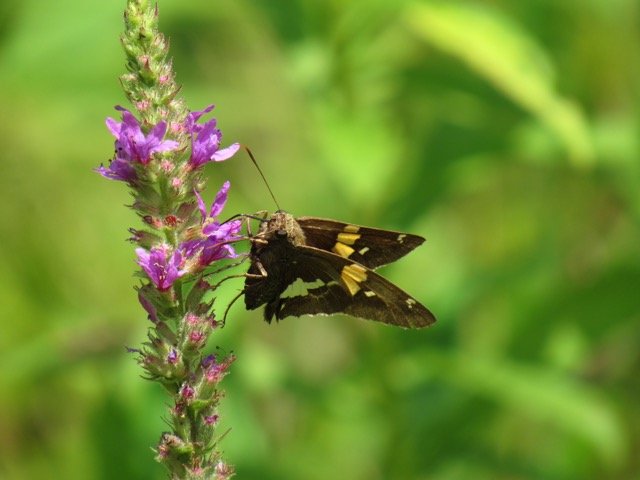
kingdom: Animalia
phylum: Arthropoda
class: Insecta
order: Lepidoptera
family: Hesperiidae
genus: Epargyreus
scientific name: Epargyreus clarus
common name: Silver-spotted Skipper
